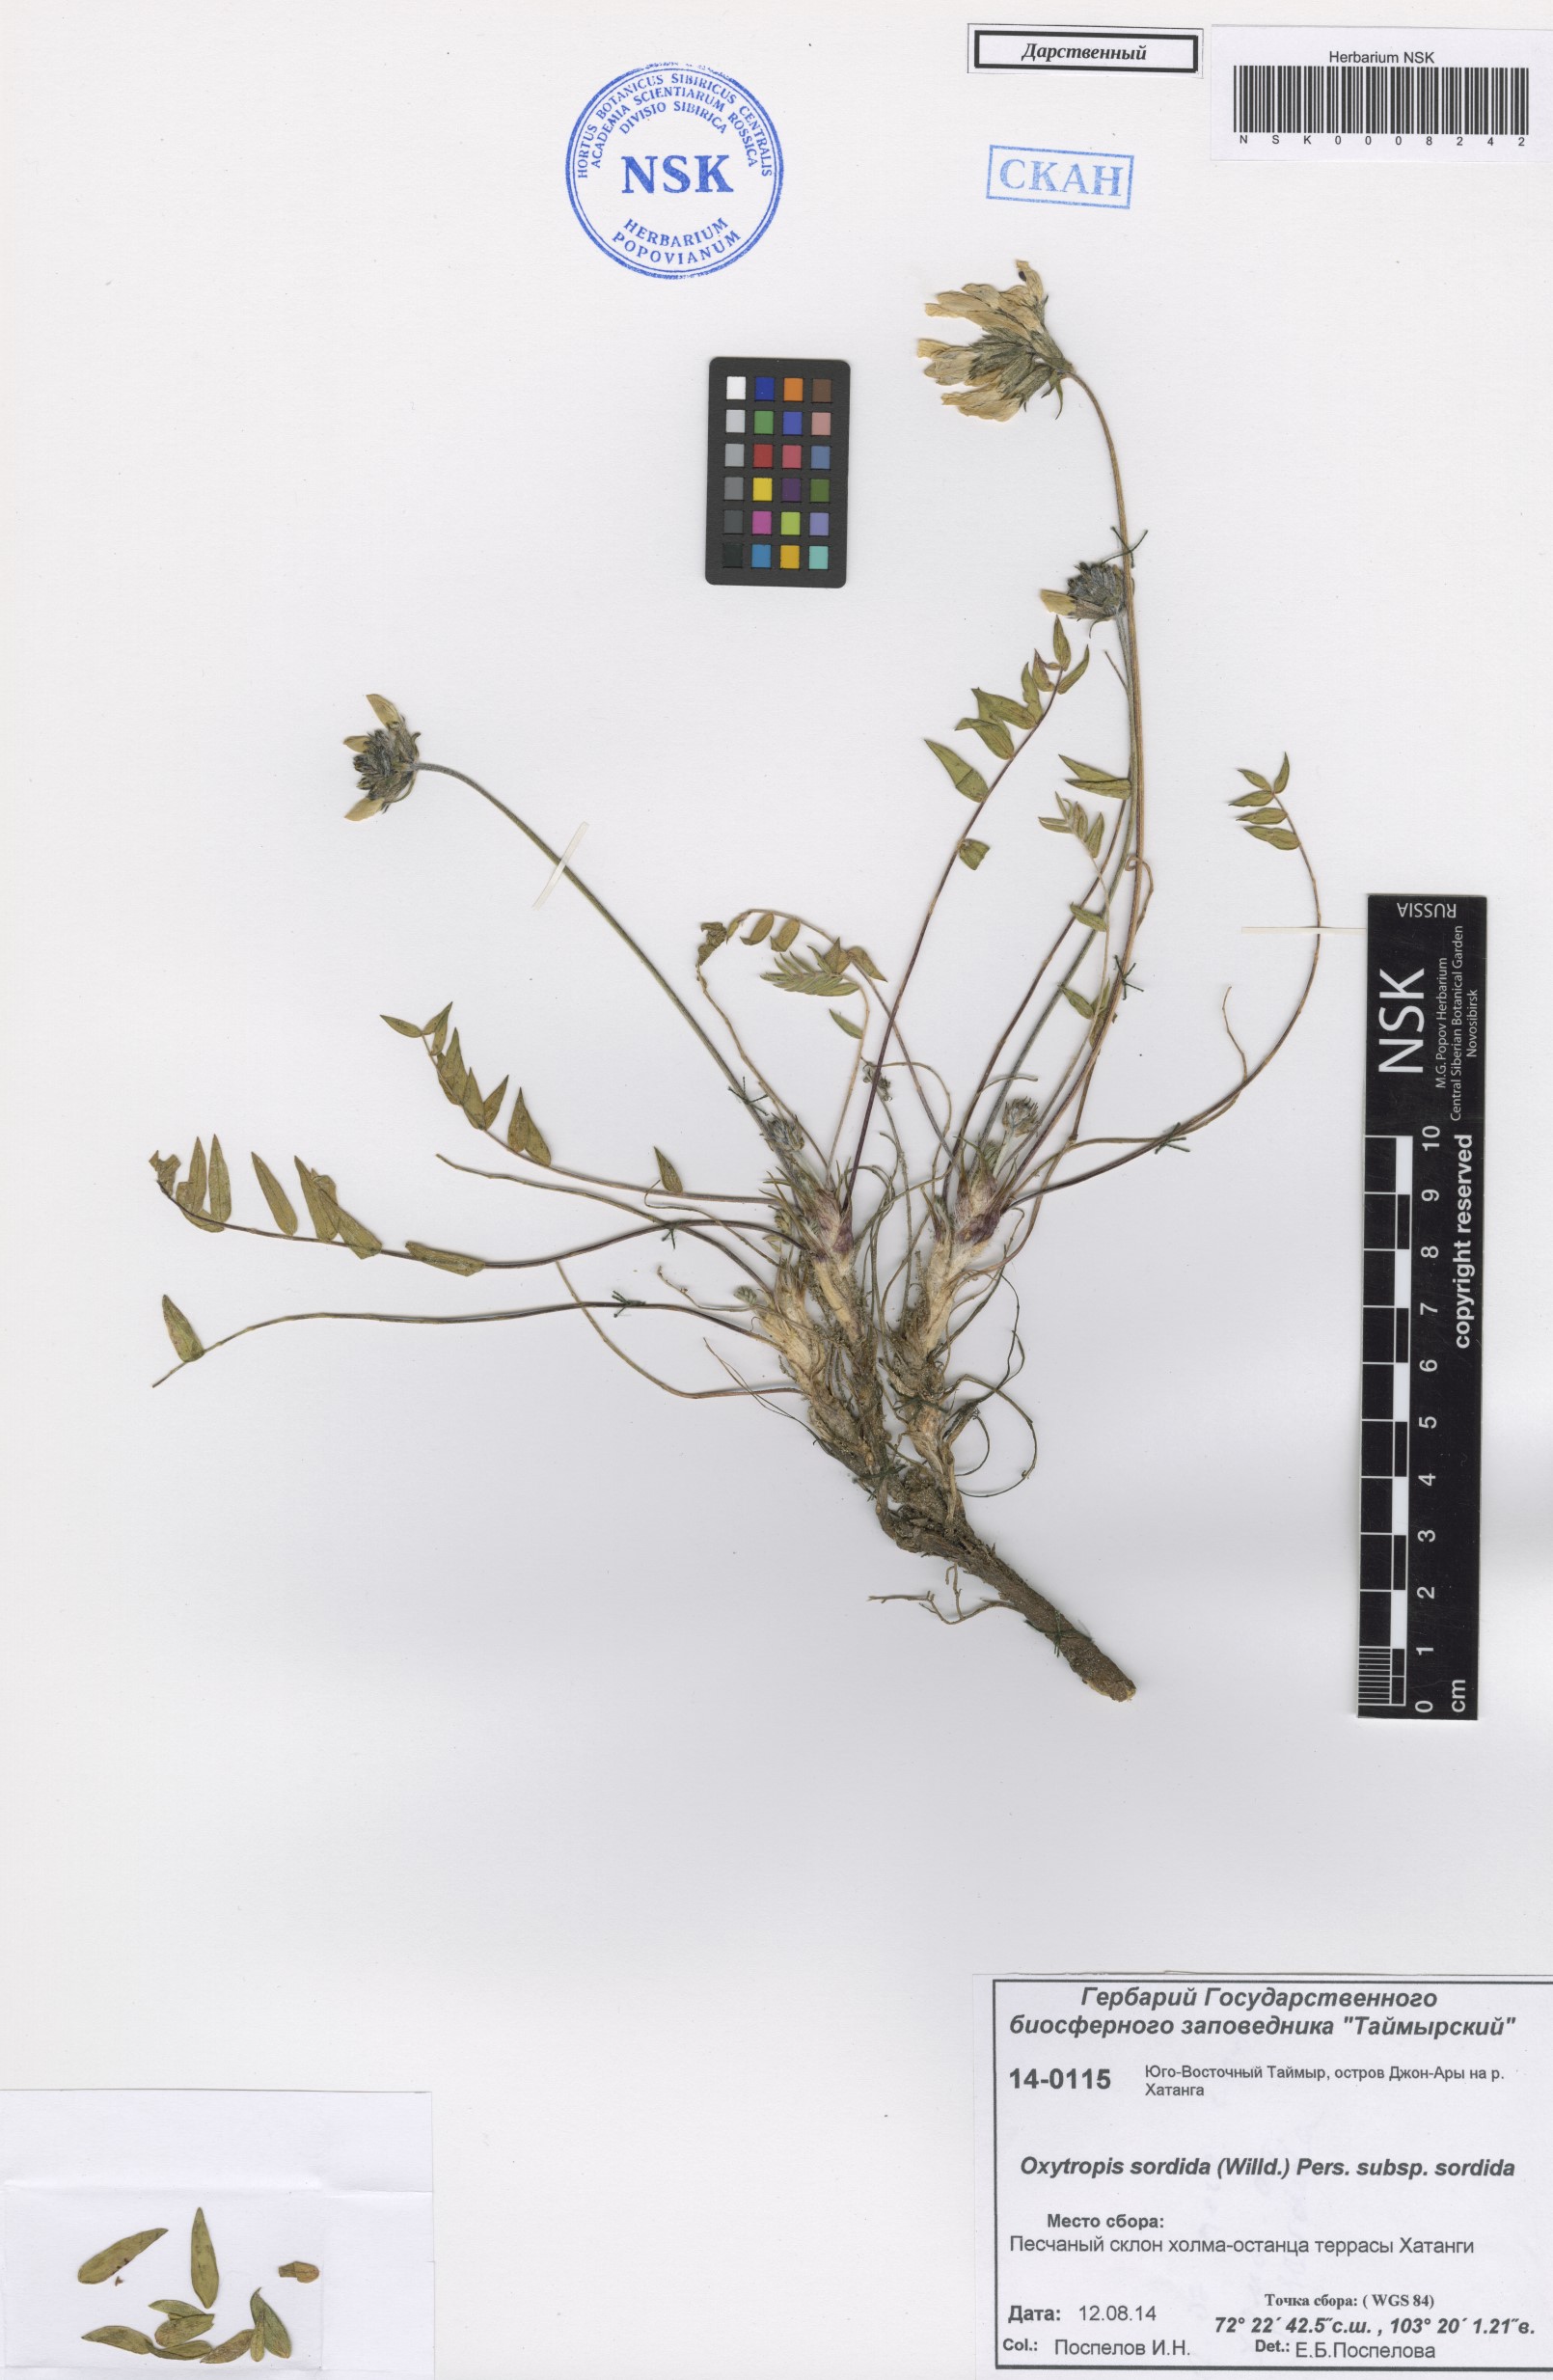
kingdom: Plantae
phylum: Tracheophyta
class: Magnoliopsida
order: Fabales
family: Fabaceae
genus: Oxytropis
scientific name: Oxytropis sordida
